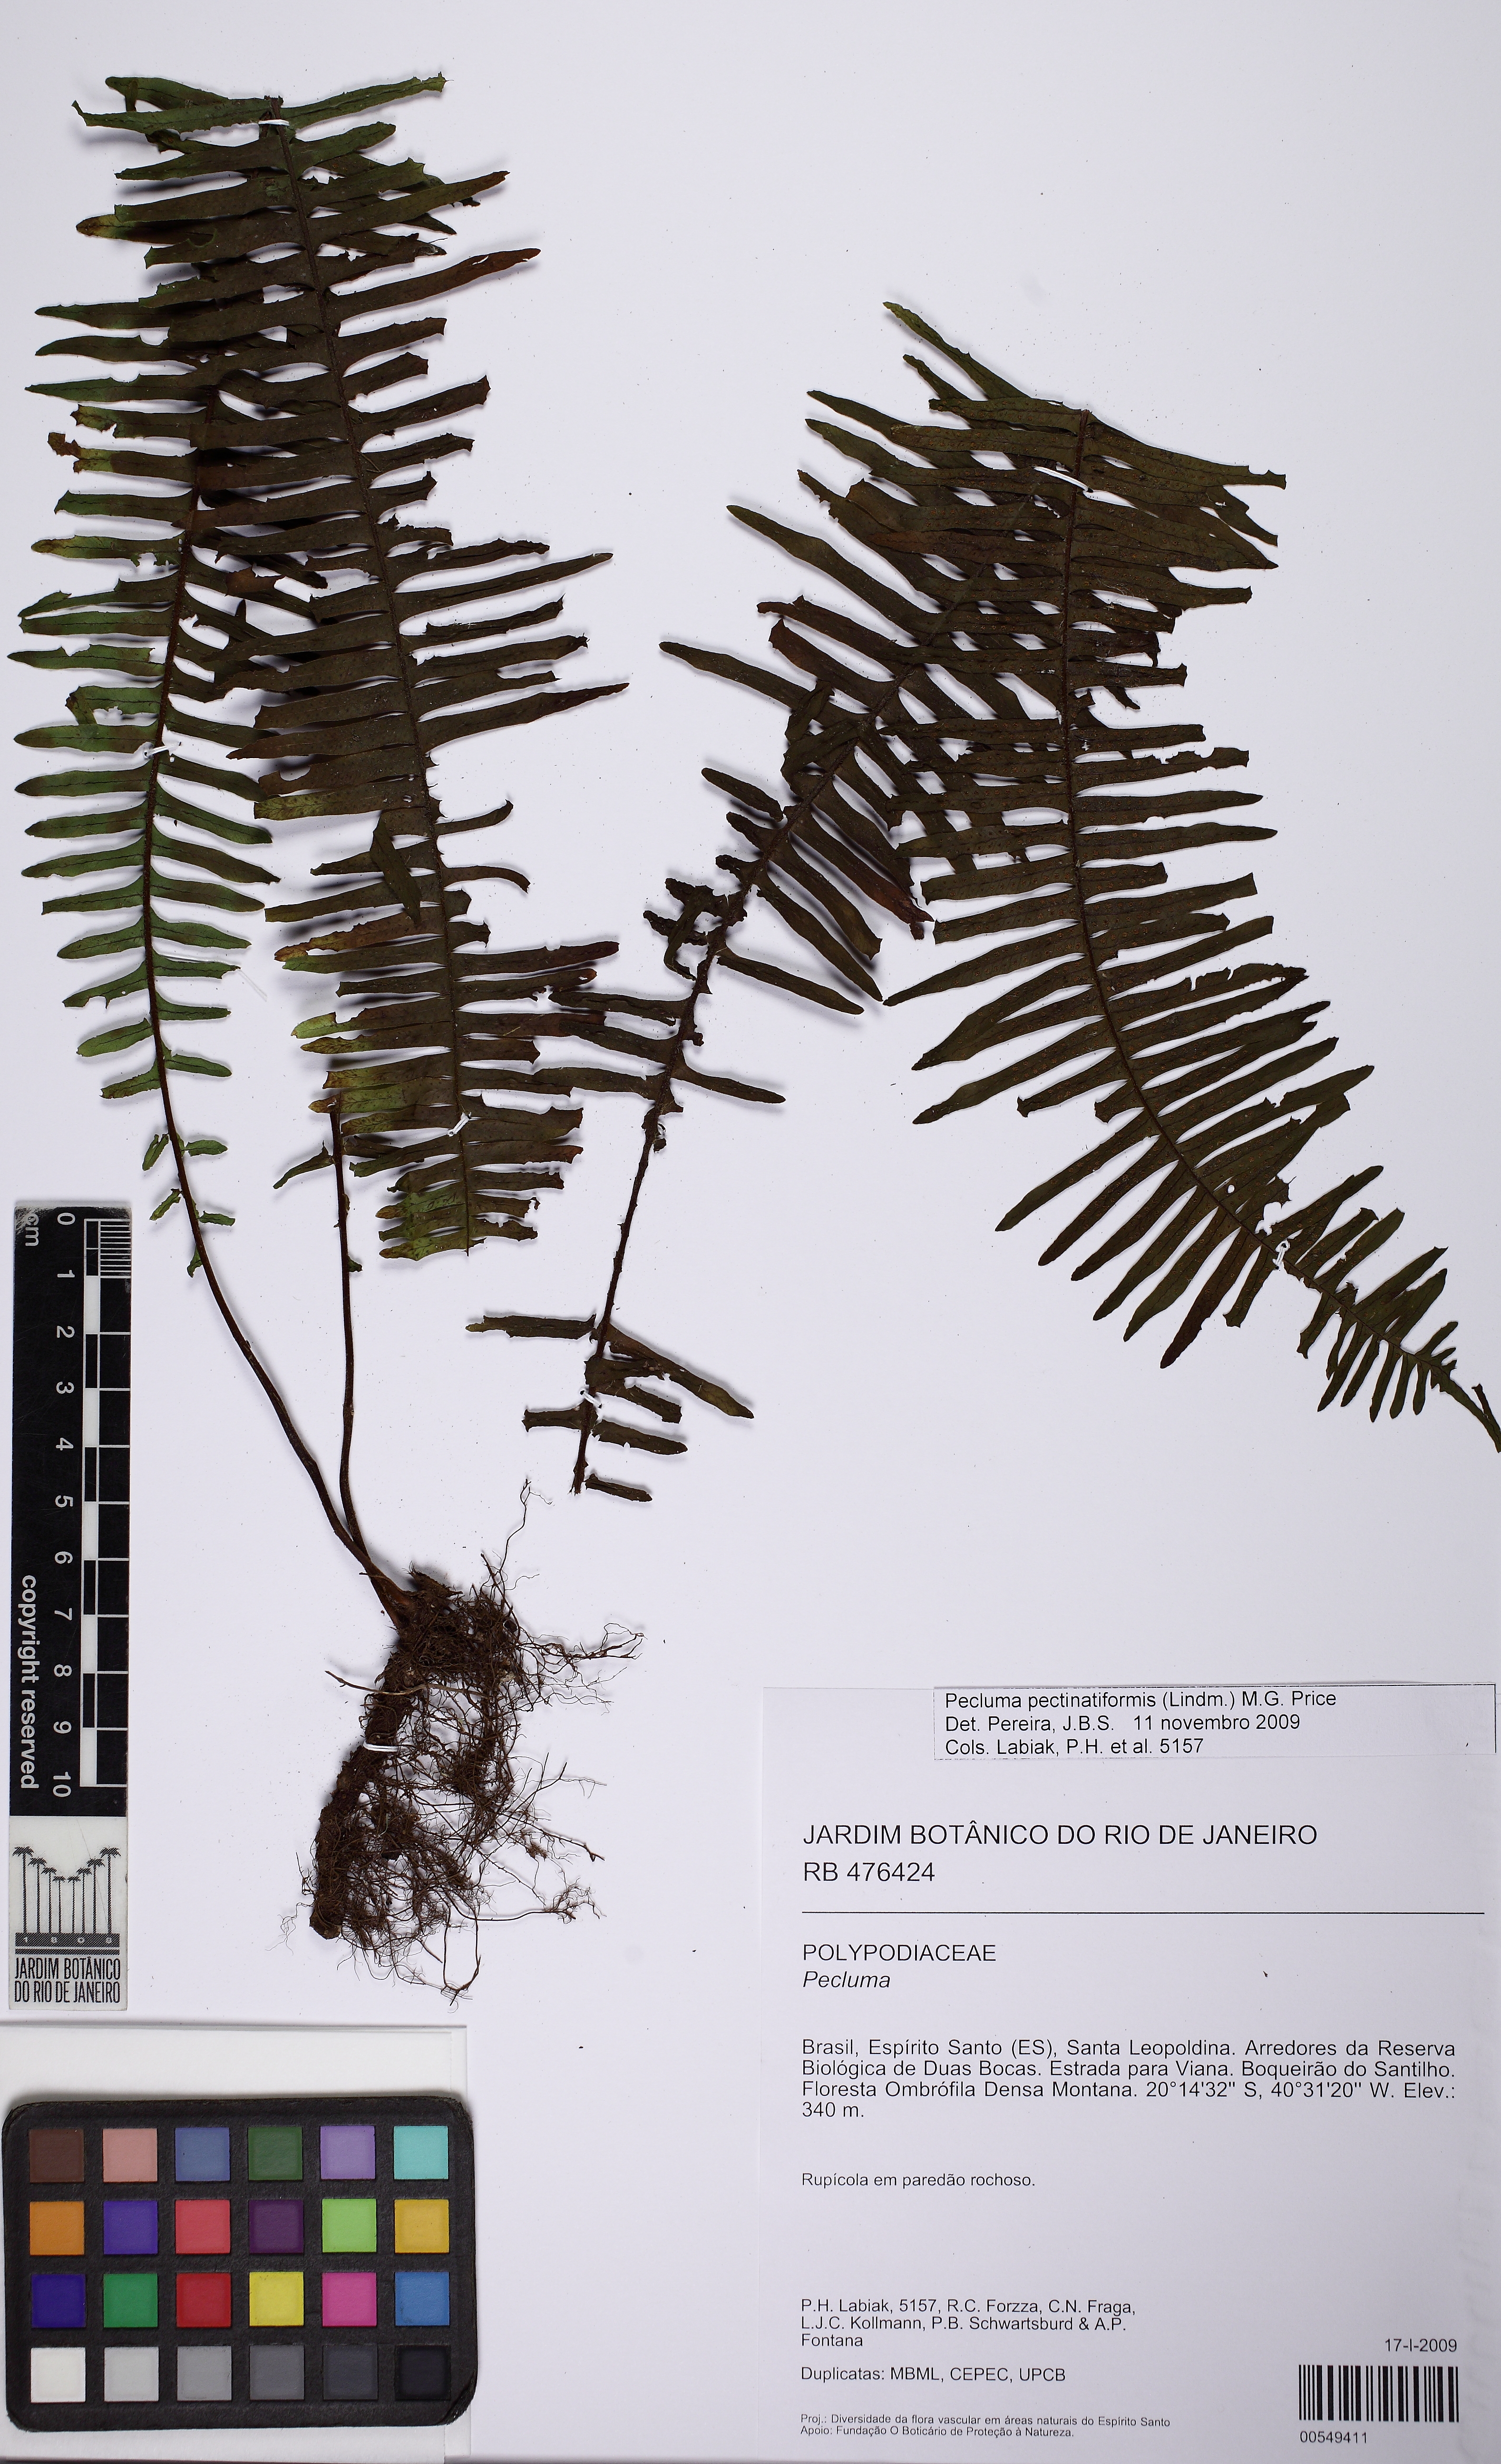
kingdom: Plantae
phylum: Tracheophyta
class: Polypodiopsida
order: Polypodiales
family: Polypodiaceae
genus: Pecluma
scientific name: Pecluma pectinatiformis
